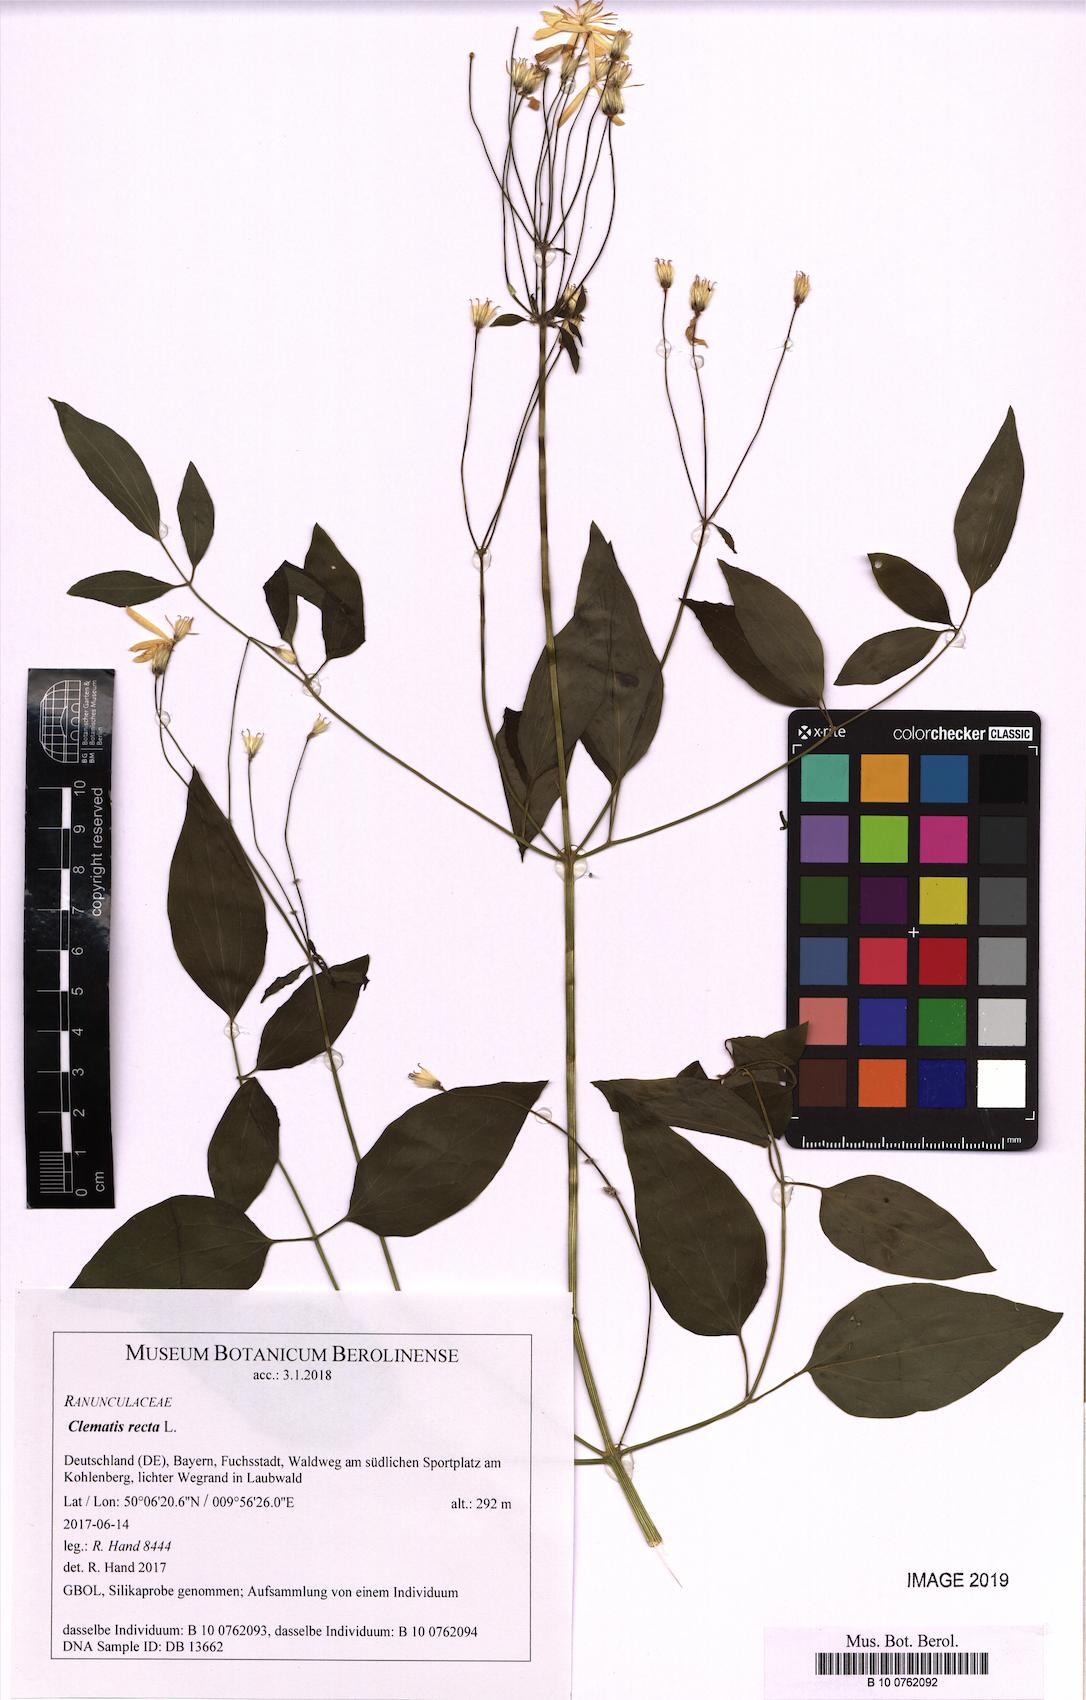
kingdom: Plantae
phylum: Tracheophyta
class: Magnoliopsida
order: Ranunculales
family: Ranunculaceae
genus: Clematis
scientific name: Clematis recta
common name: Ground clematis
